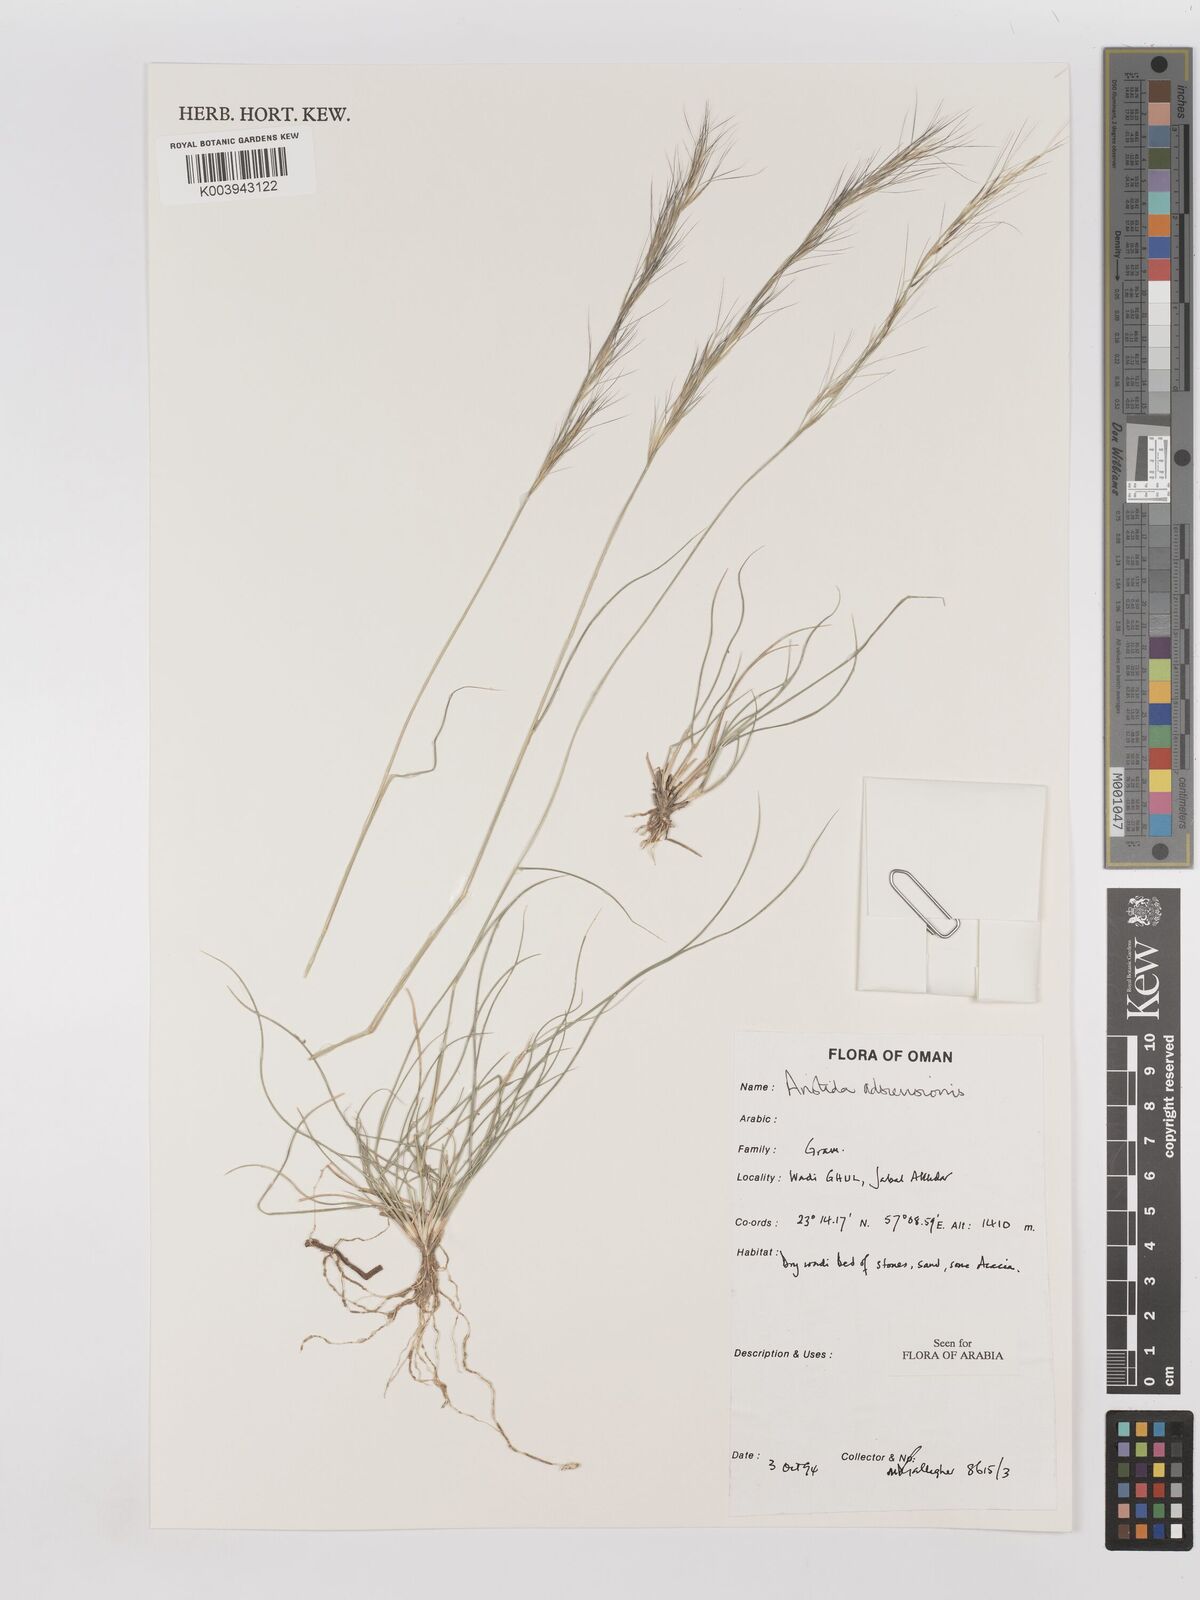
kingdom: Plantae
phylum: Tracheophyta
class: Liliopsida
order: Poales
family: Poaceae
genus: Aristida
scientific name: Aristida adscensionis
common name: Sixweeks threeawn
